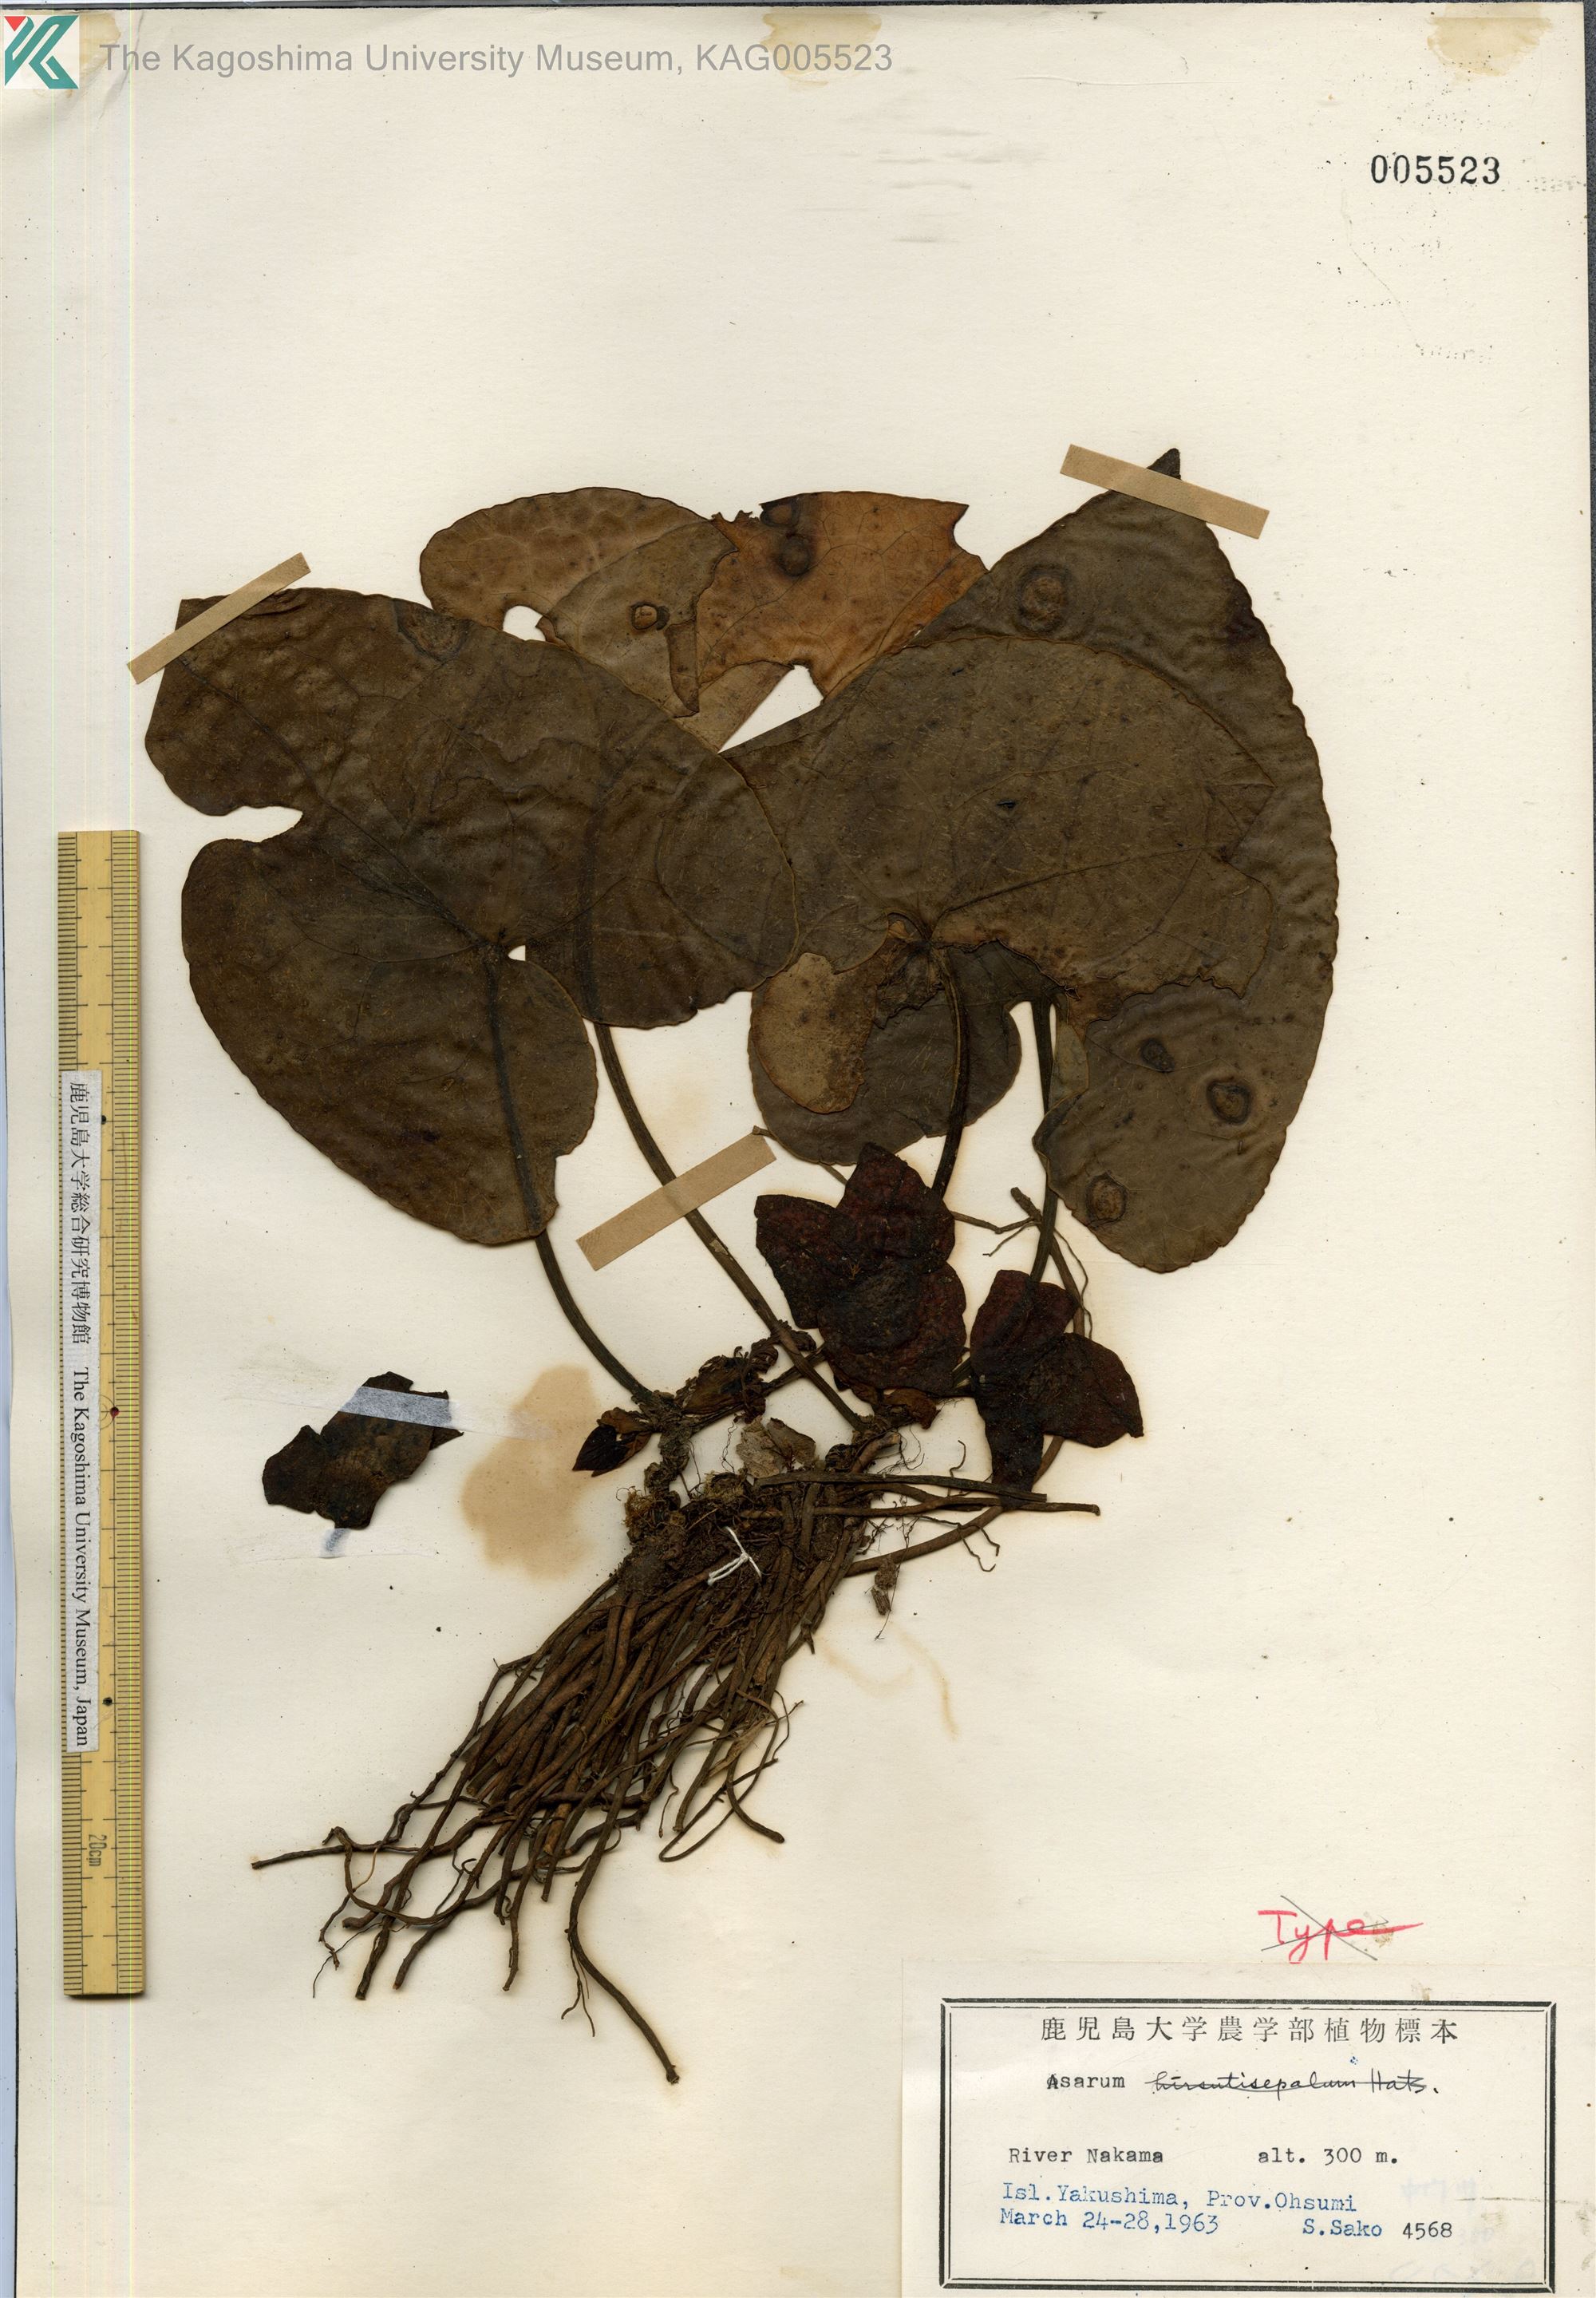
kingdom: Plantae
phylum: Tracheophyta
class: Magnoliopsida
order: Piperales
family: Aristolochiaceae
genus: Asarum
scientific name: Asarum yakusimense
